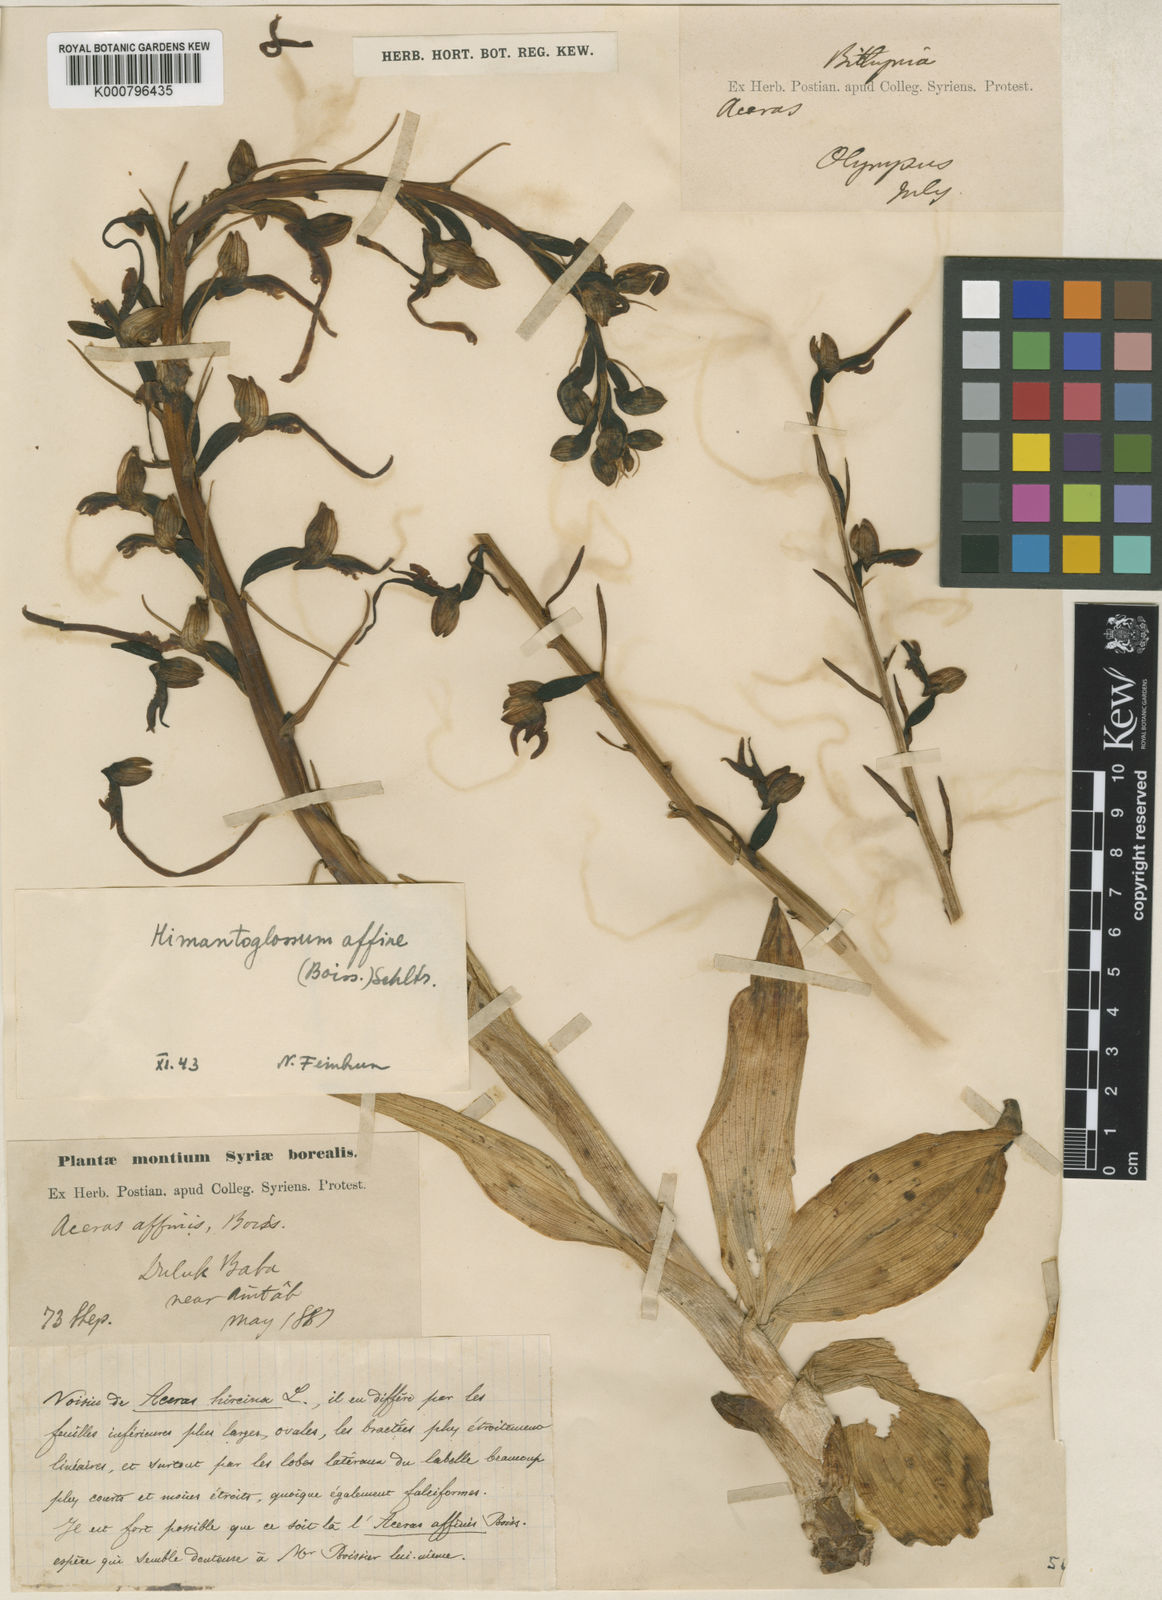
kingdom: Plantae
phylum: Tracheophyta
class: Liliopsida
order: Asparagales
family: Orchidaceae
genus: Himantoglossum
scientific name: Himantoglossum caprinum
